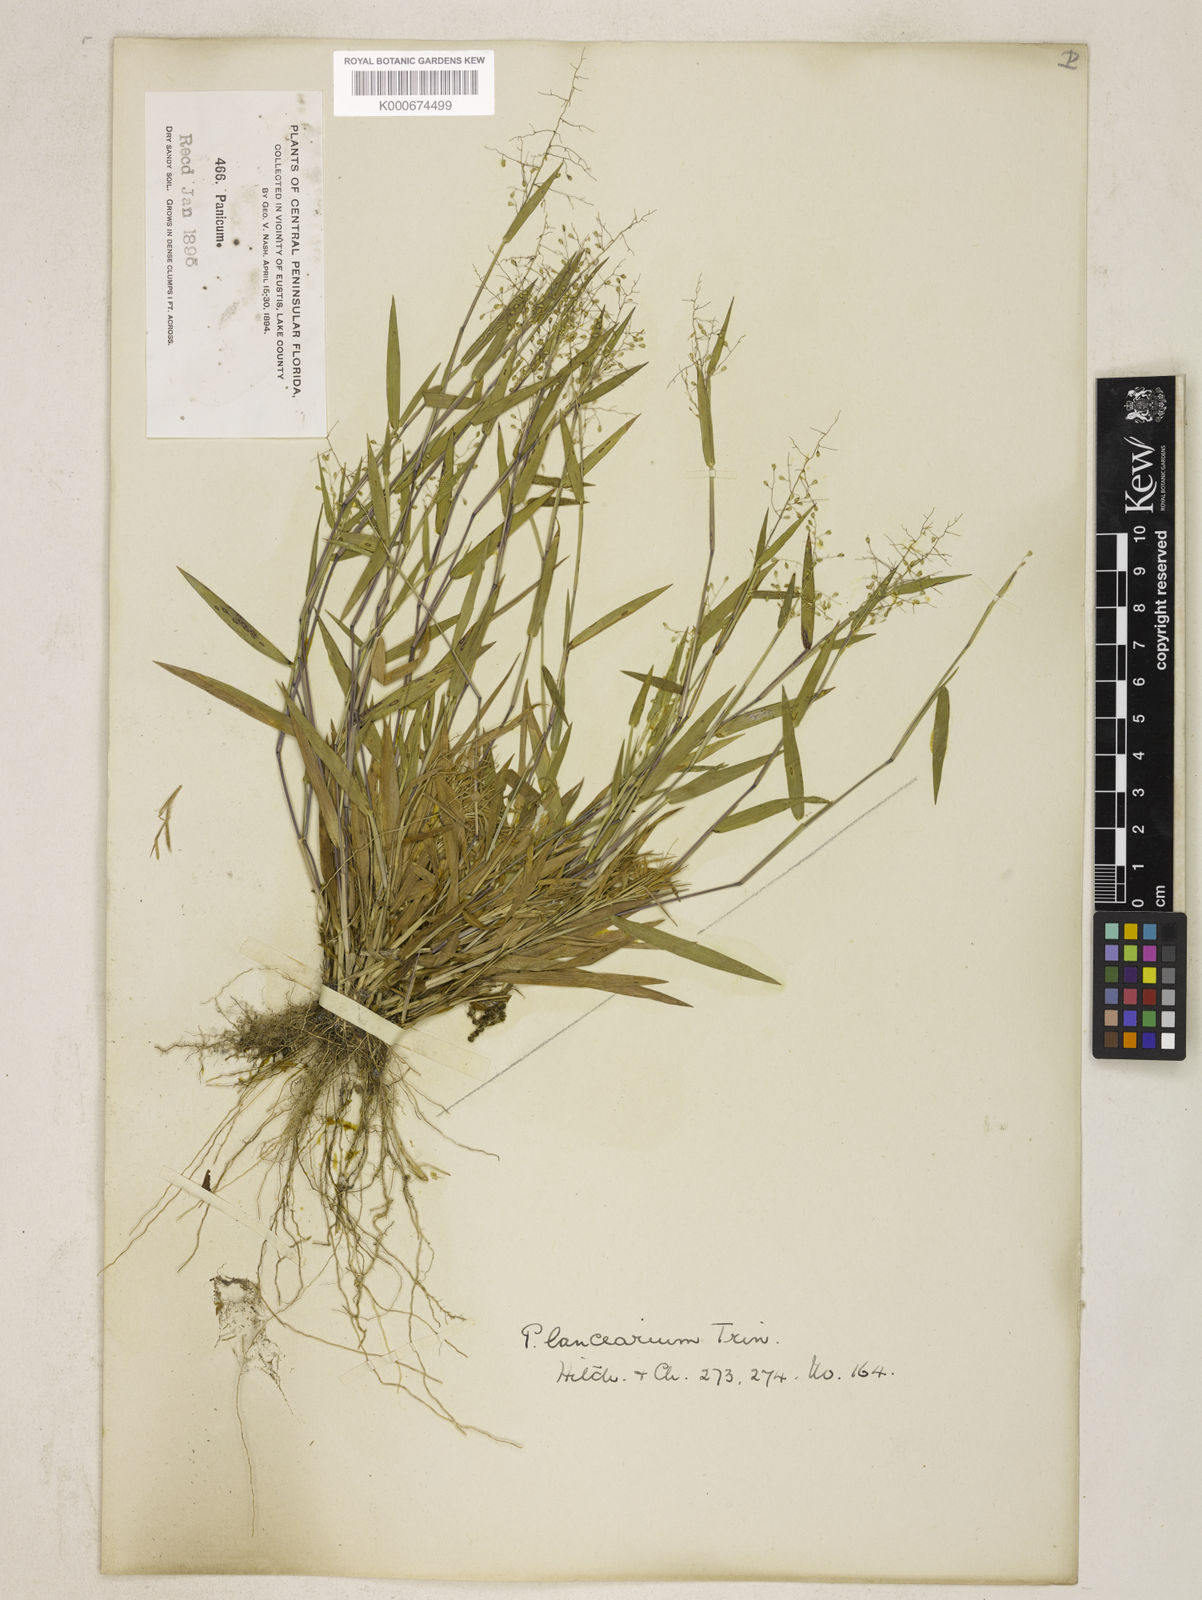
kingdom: Plantae
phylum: Tracheophyta
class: Liliopsida
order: Poales
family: Poaceae
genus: Dichanthelium
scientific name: Dichanthelium portoricense
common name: American panicgrass
